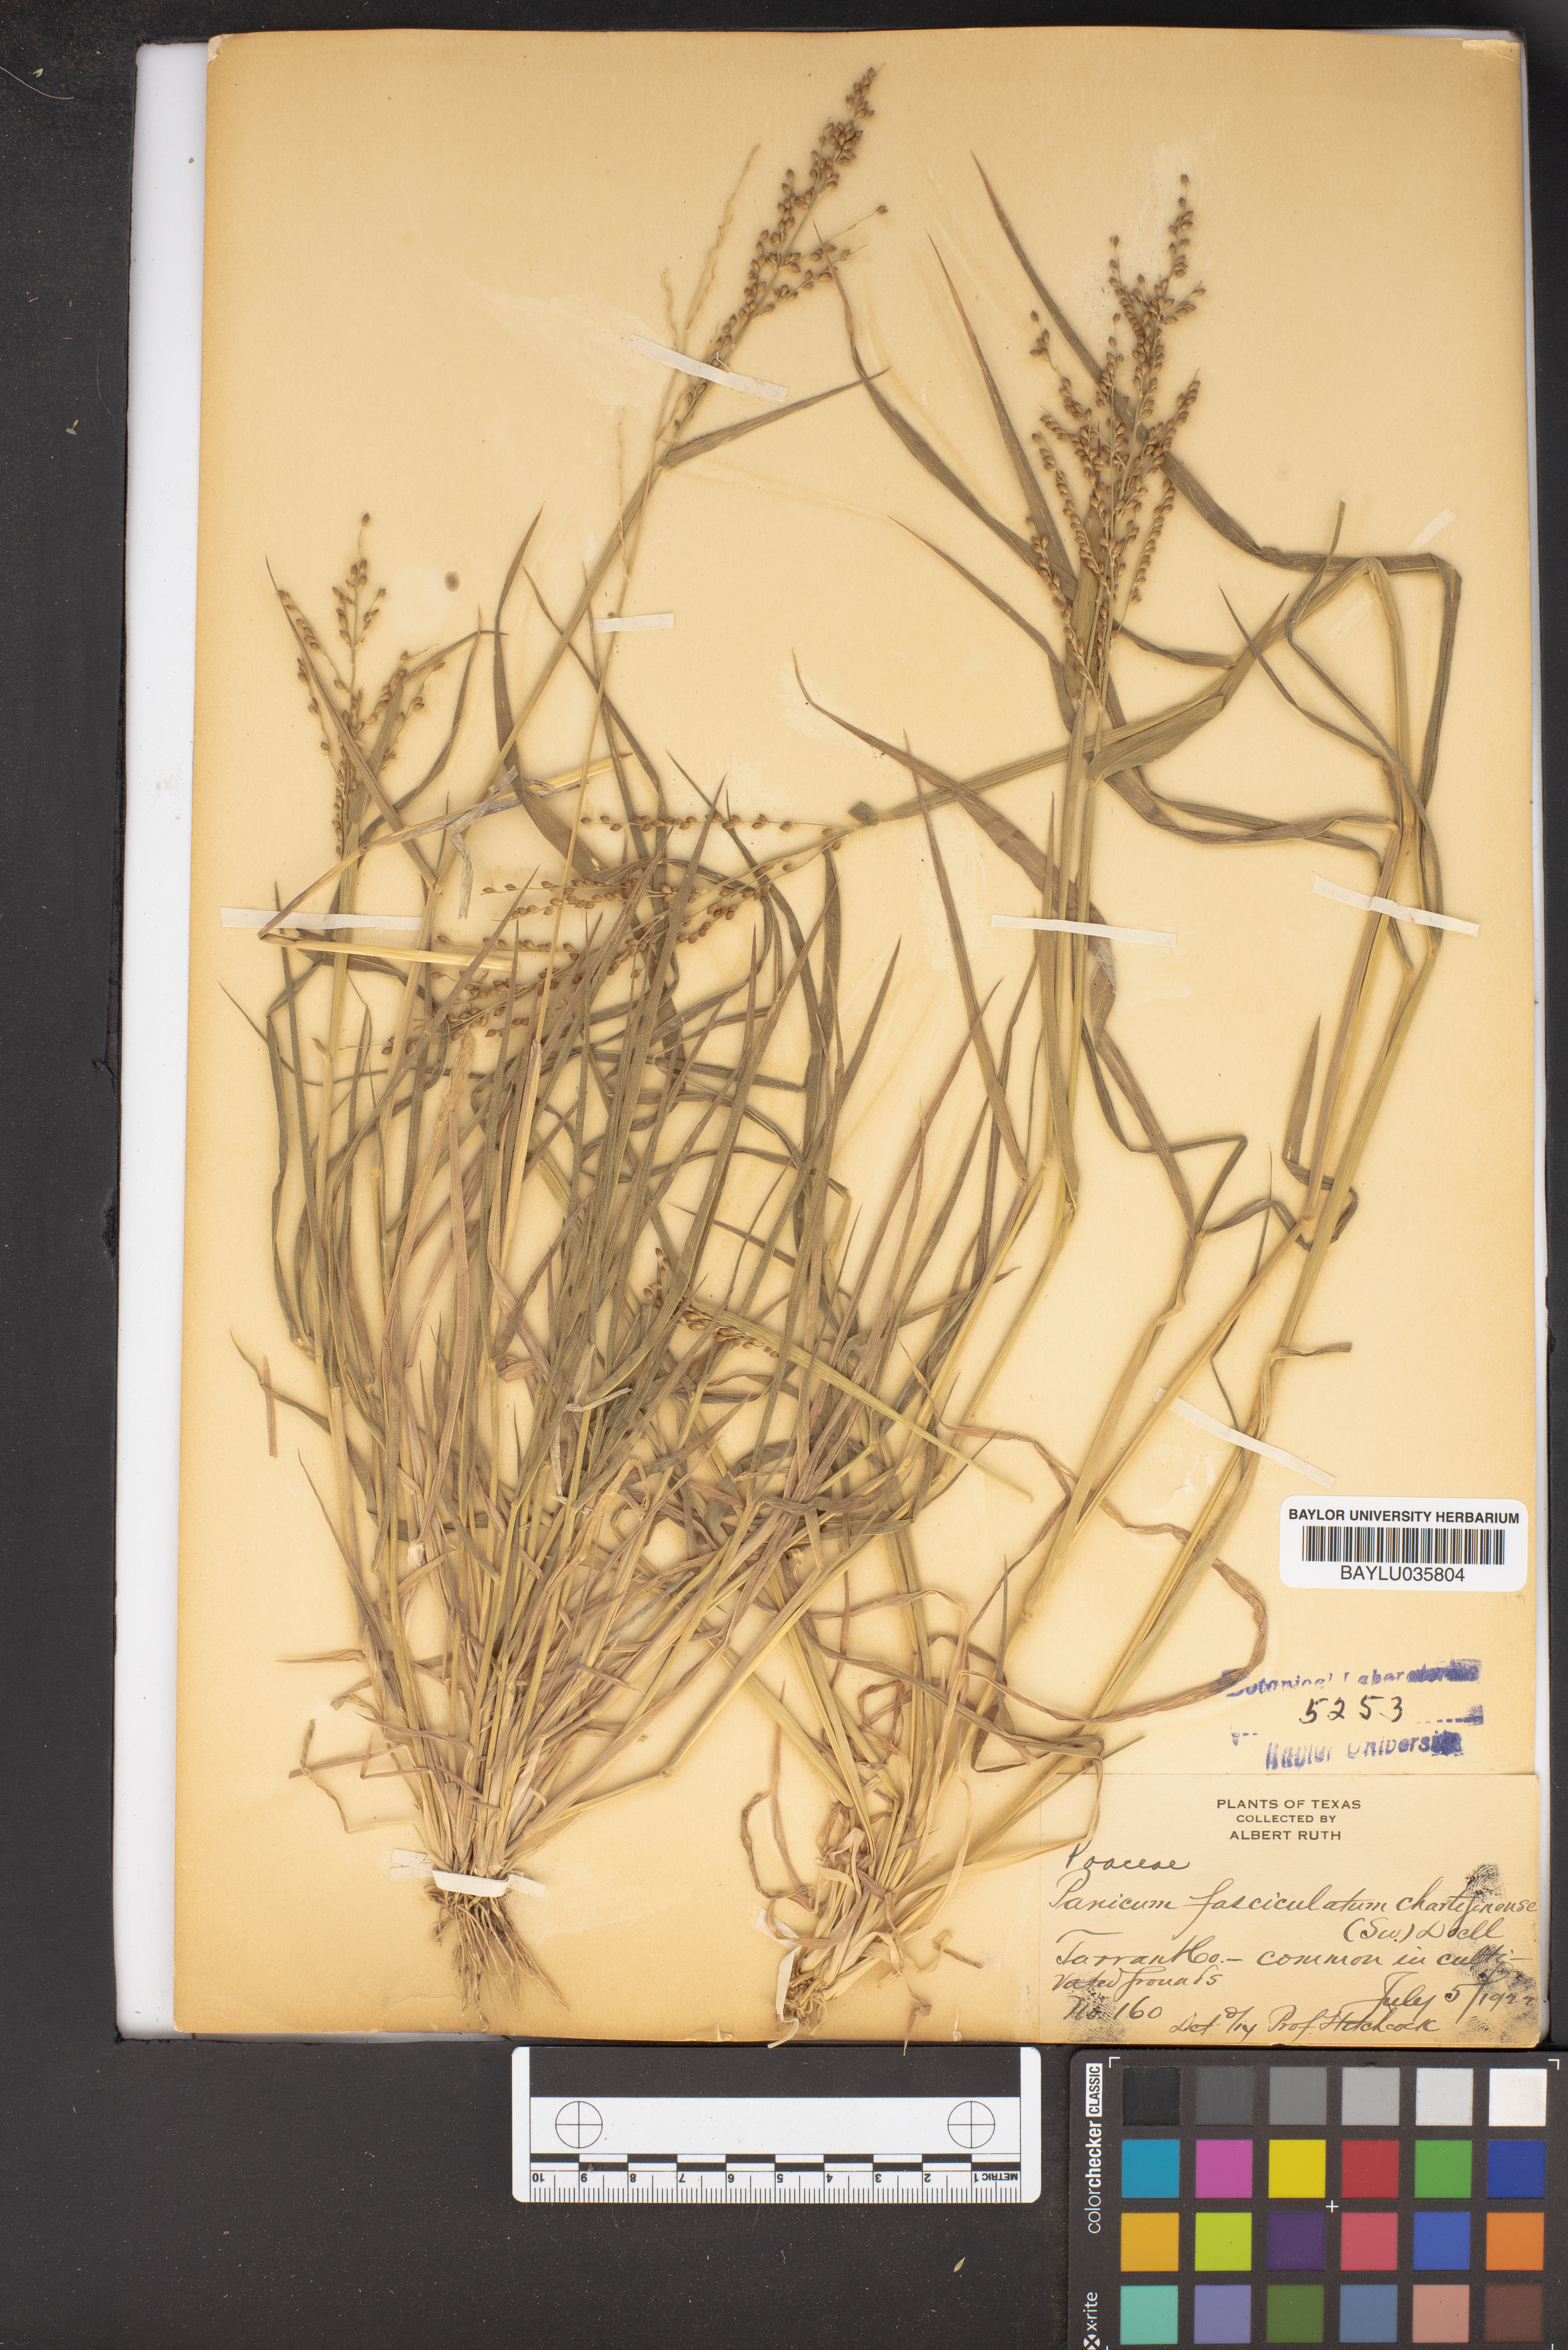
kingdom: Plantae
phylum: Tracheophyta
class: Liliopsida
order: Poales
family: Poaceae
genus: Urochloa
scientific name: Urochloa fusca
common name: Browntop signal grass
